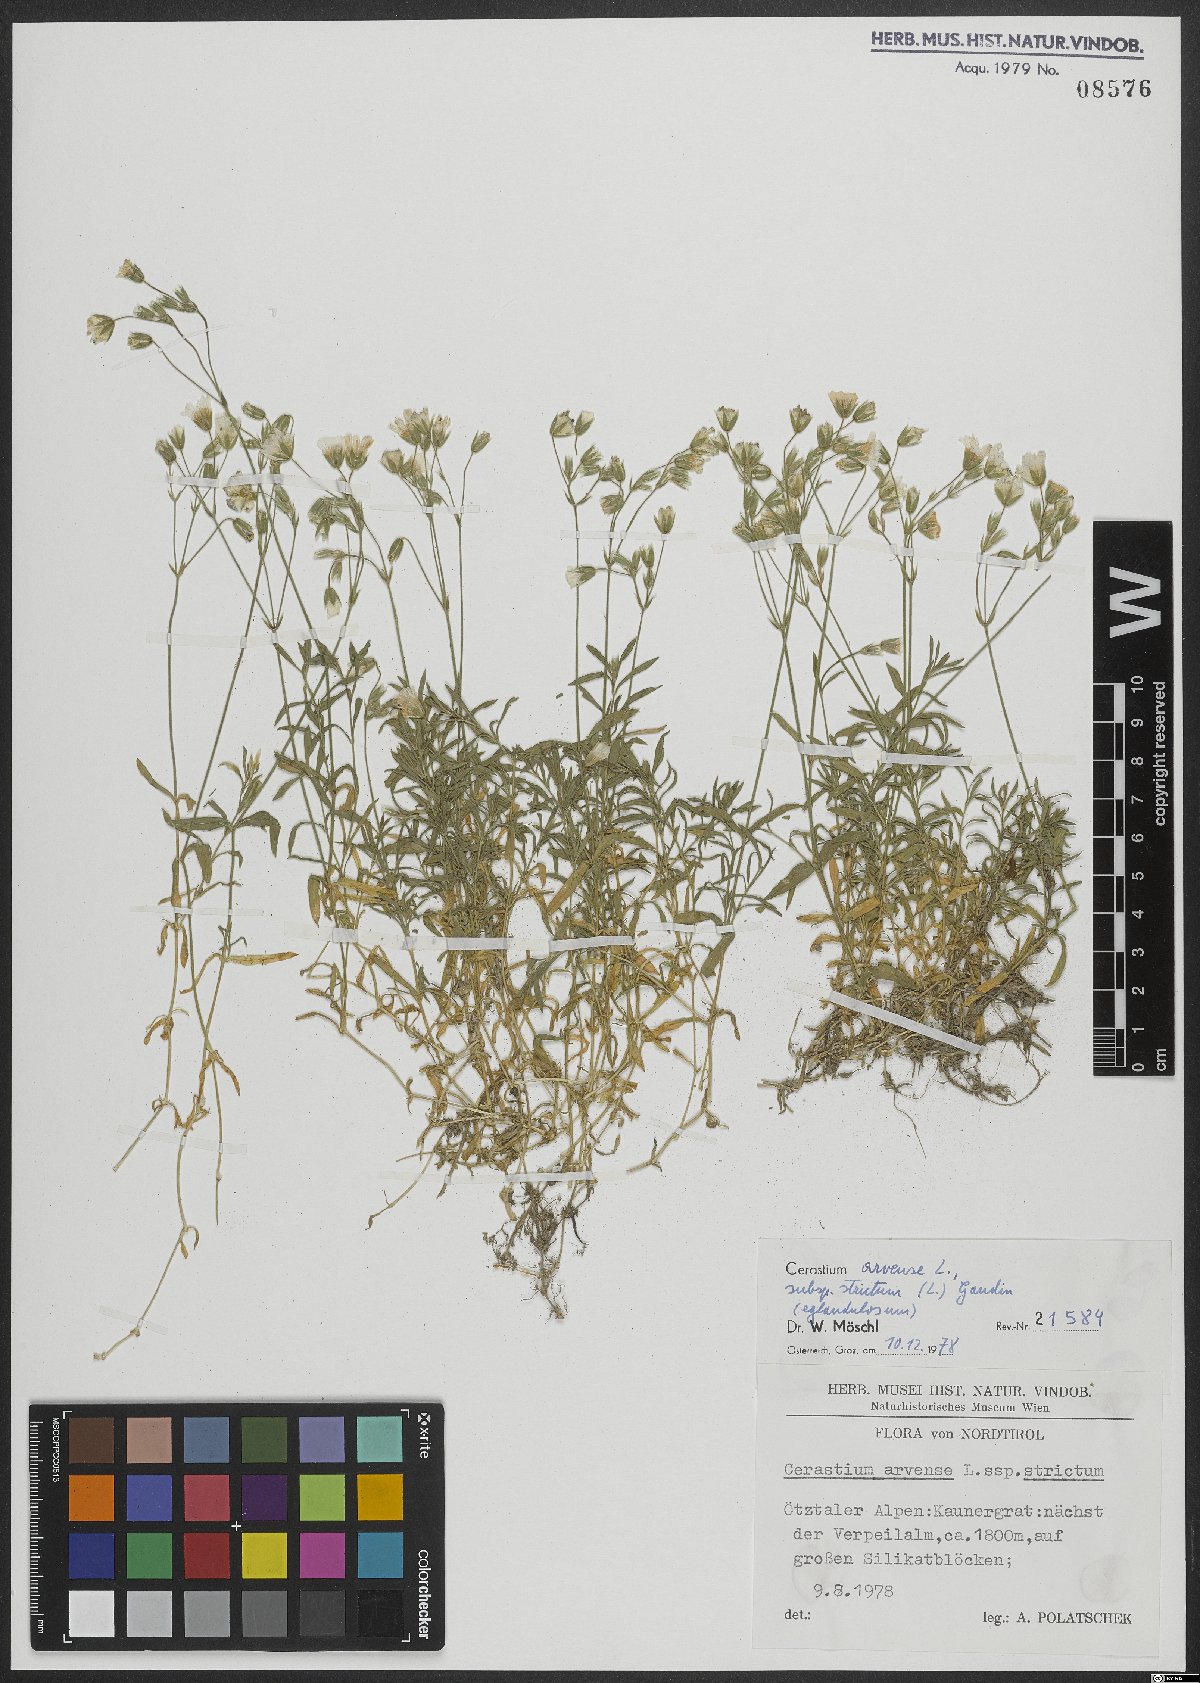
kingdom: Plantae
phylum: Tracheophyta
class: Magnoliopsida
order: Caryophyllales
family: Caryophyllaceae
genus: Cerastium
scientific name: Cerastium elongatum
